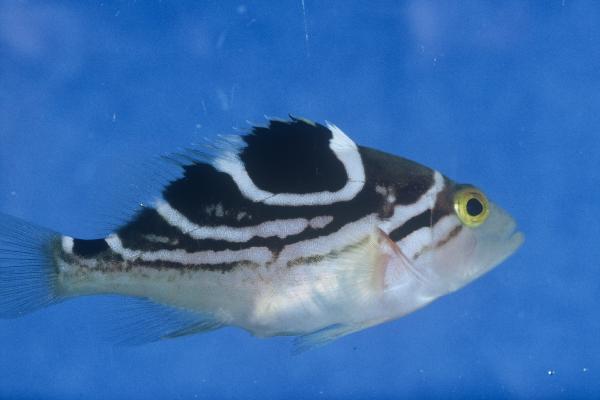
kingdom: Animalia
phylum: Chordata
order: Perciformes
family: Serranidae
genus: Epinephelus
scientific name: Epinephelus poecilonotus
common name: Dot-dash grouper
